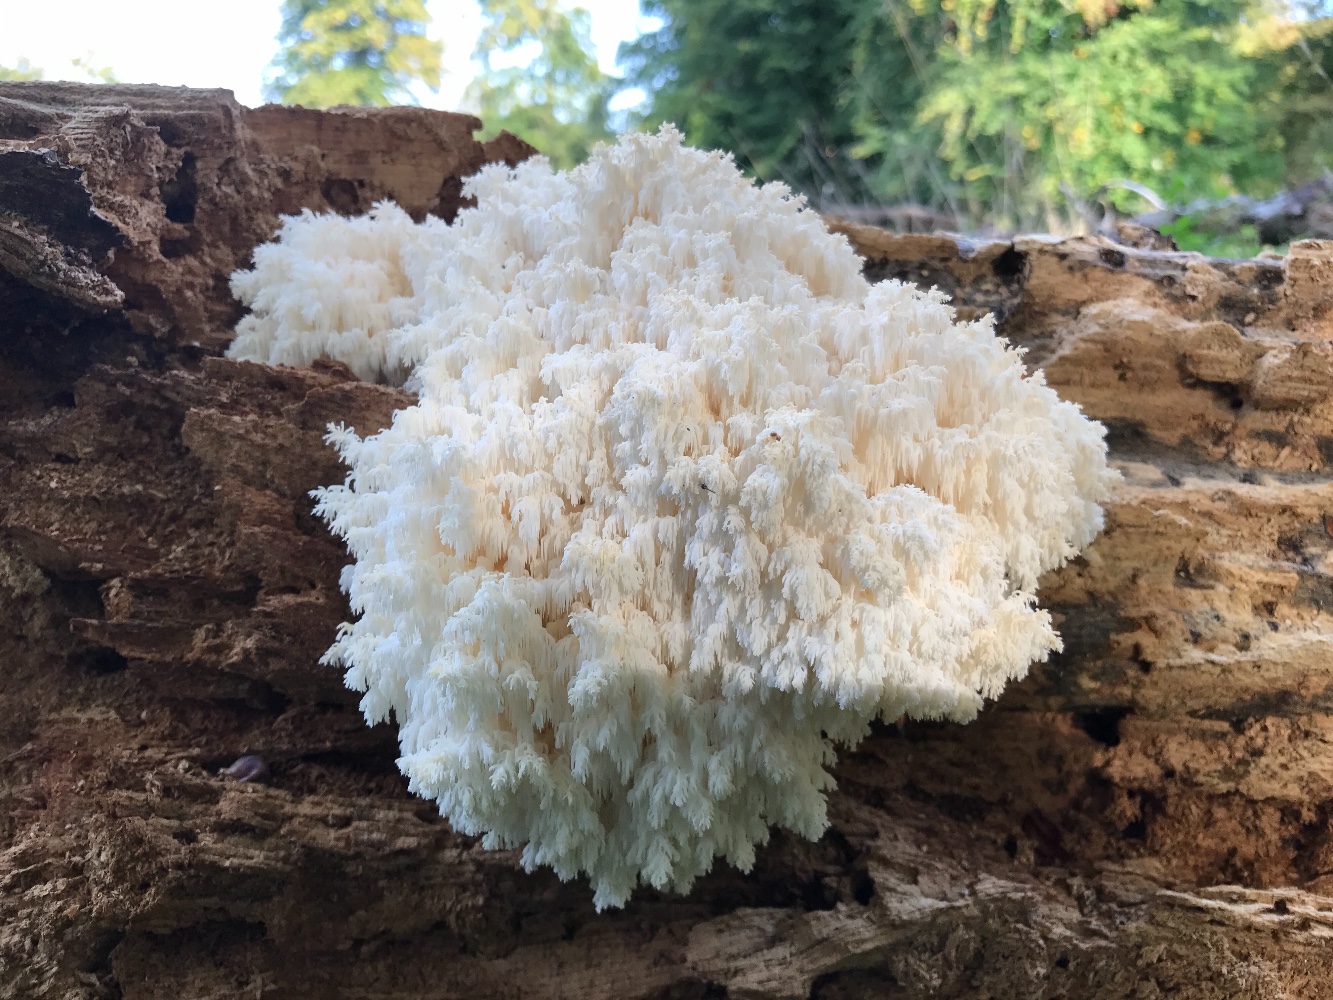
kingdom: Fungi
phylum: Basidiomycota
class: Agaricomycetes
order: Russulales
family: Hericiaceae
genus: Hericium
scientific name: Hericium coralloides
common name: koralpigsvamp
